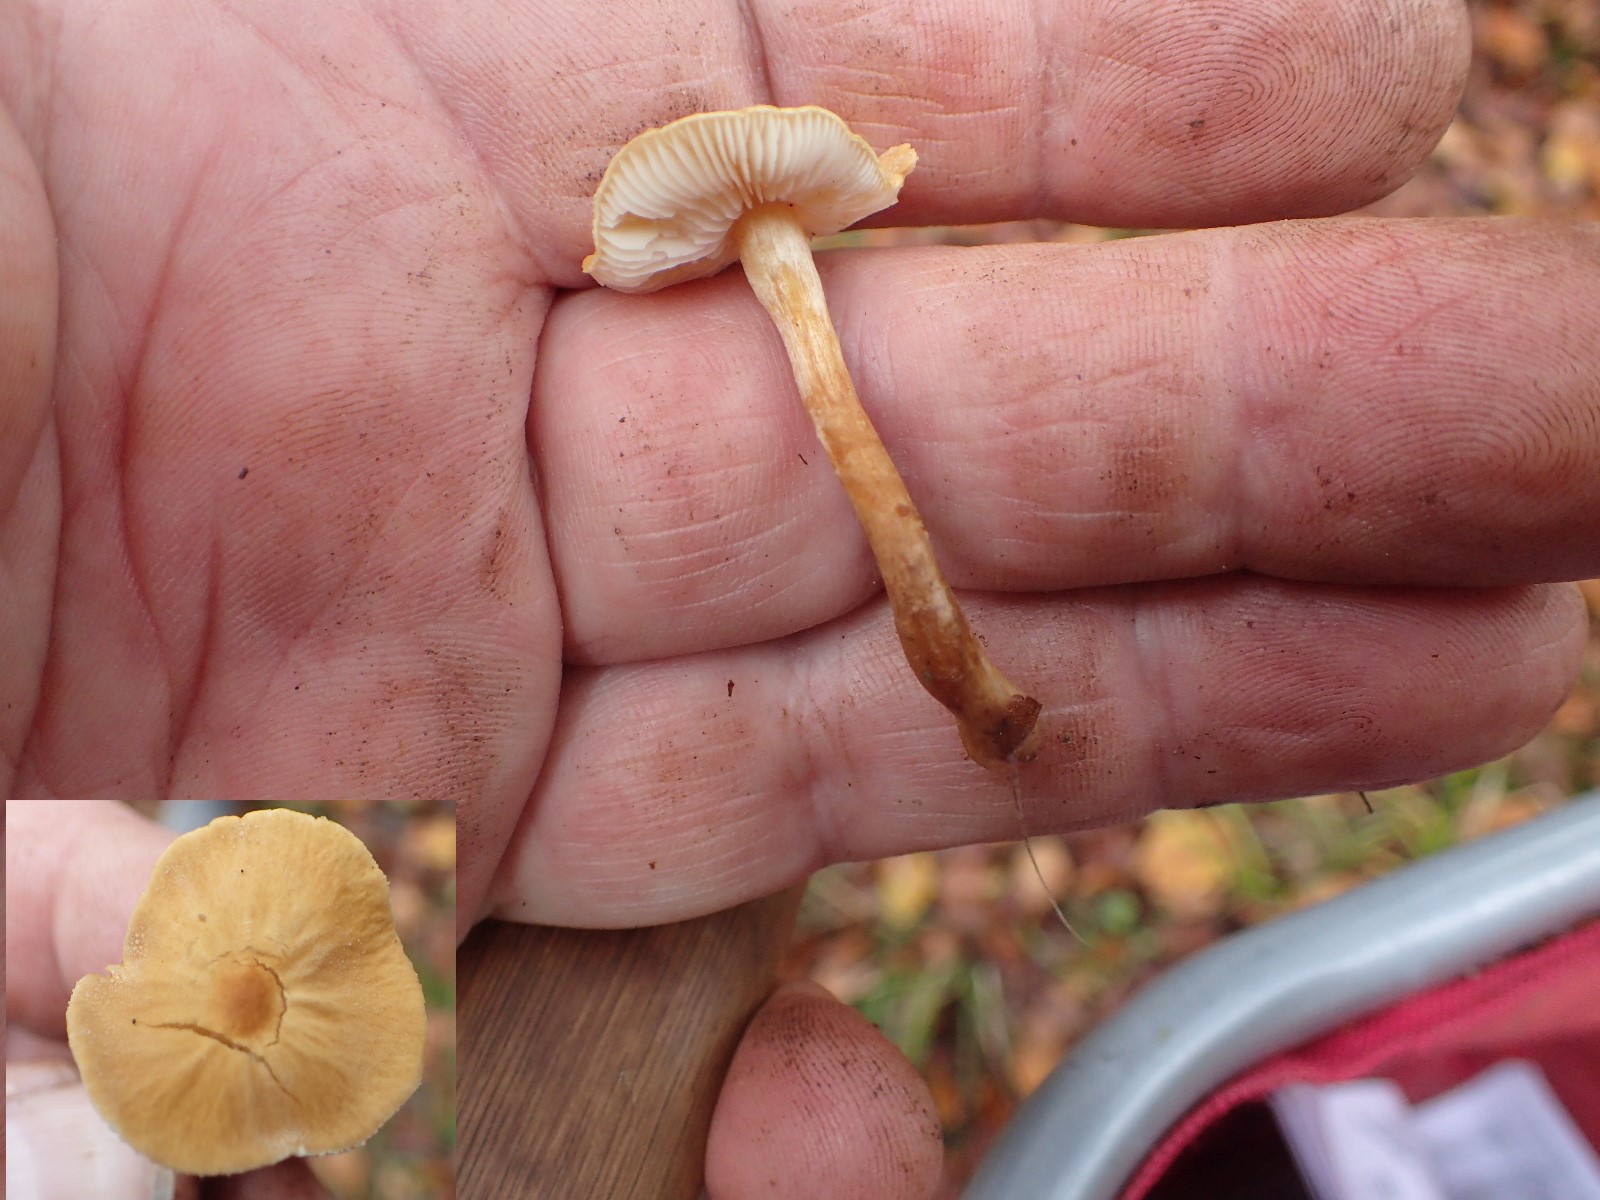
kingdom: Fungi
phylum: Basidiomycota
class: Agaricomycetes
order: Agaricales
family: Tricholomataceae
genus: Cystoderma
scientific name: Cystoderma amianthinum
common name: okkergul grynhat
